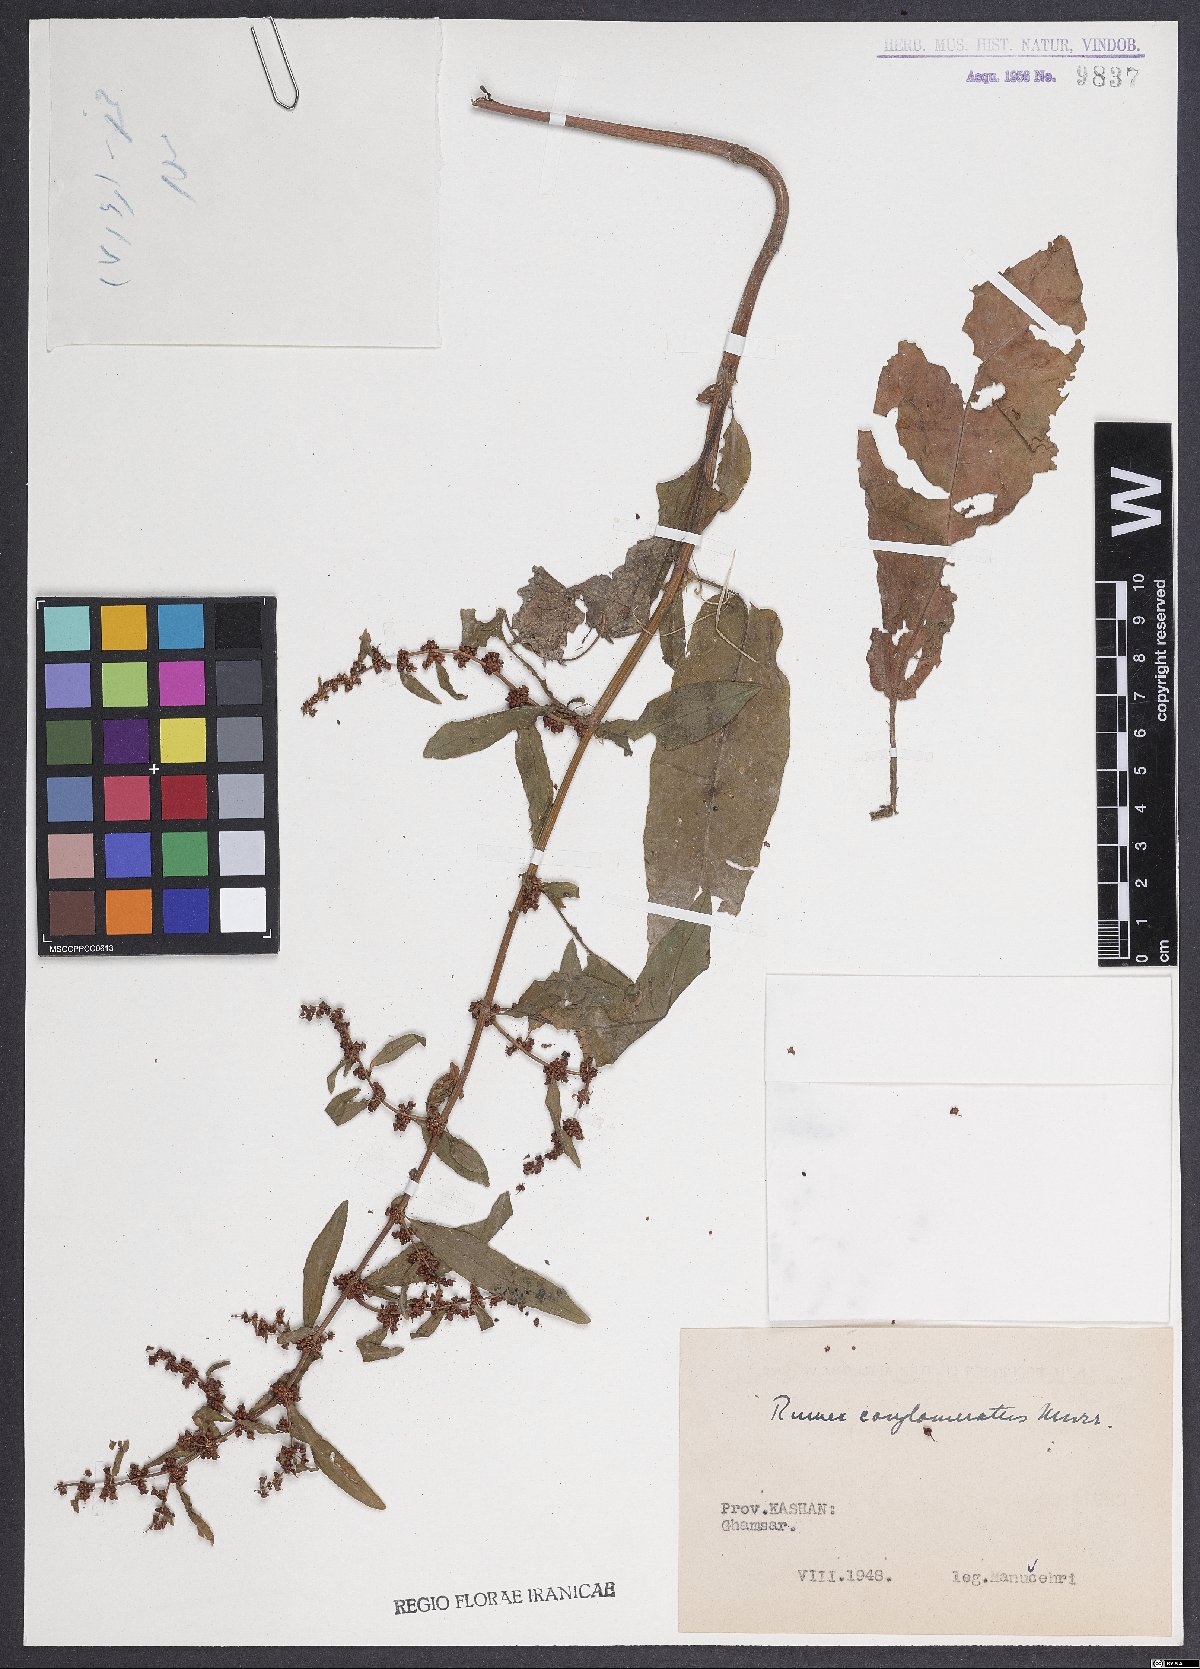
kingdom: Plantae
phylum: Tracheophyta
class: Magnoliopsida
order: Caryophyllales
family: Polygonaceae
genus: Rumex
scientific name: Rumex conglomeratus
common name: Clustered dock
